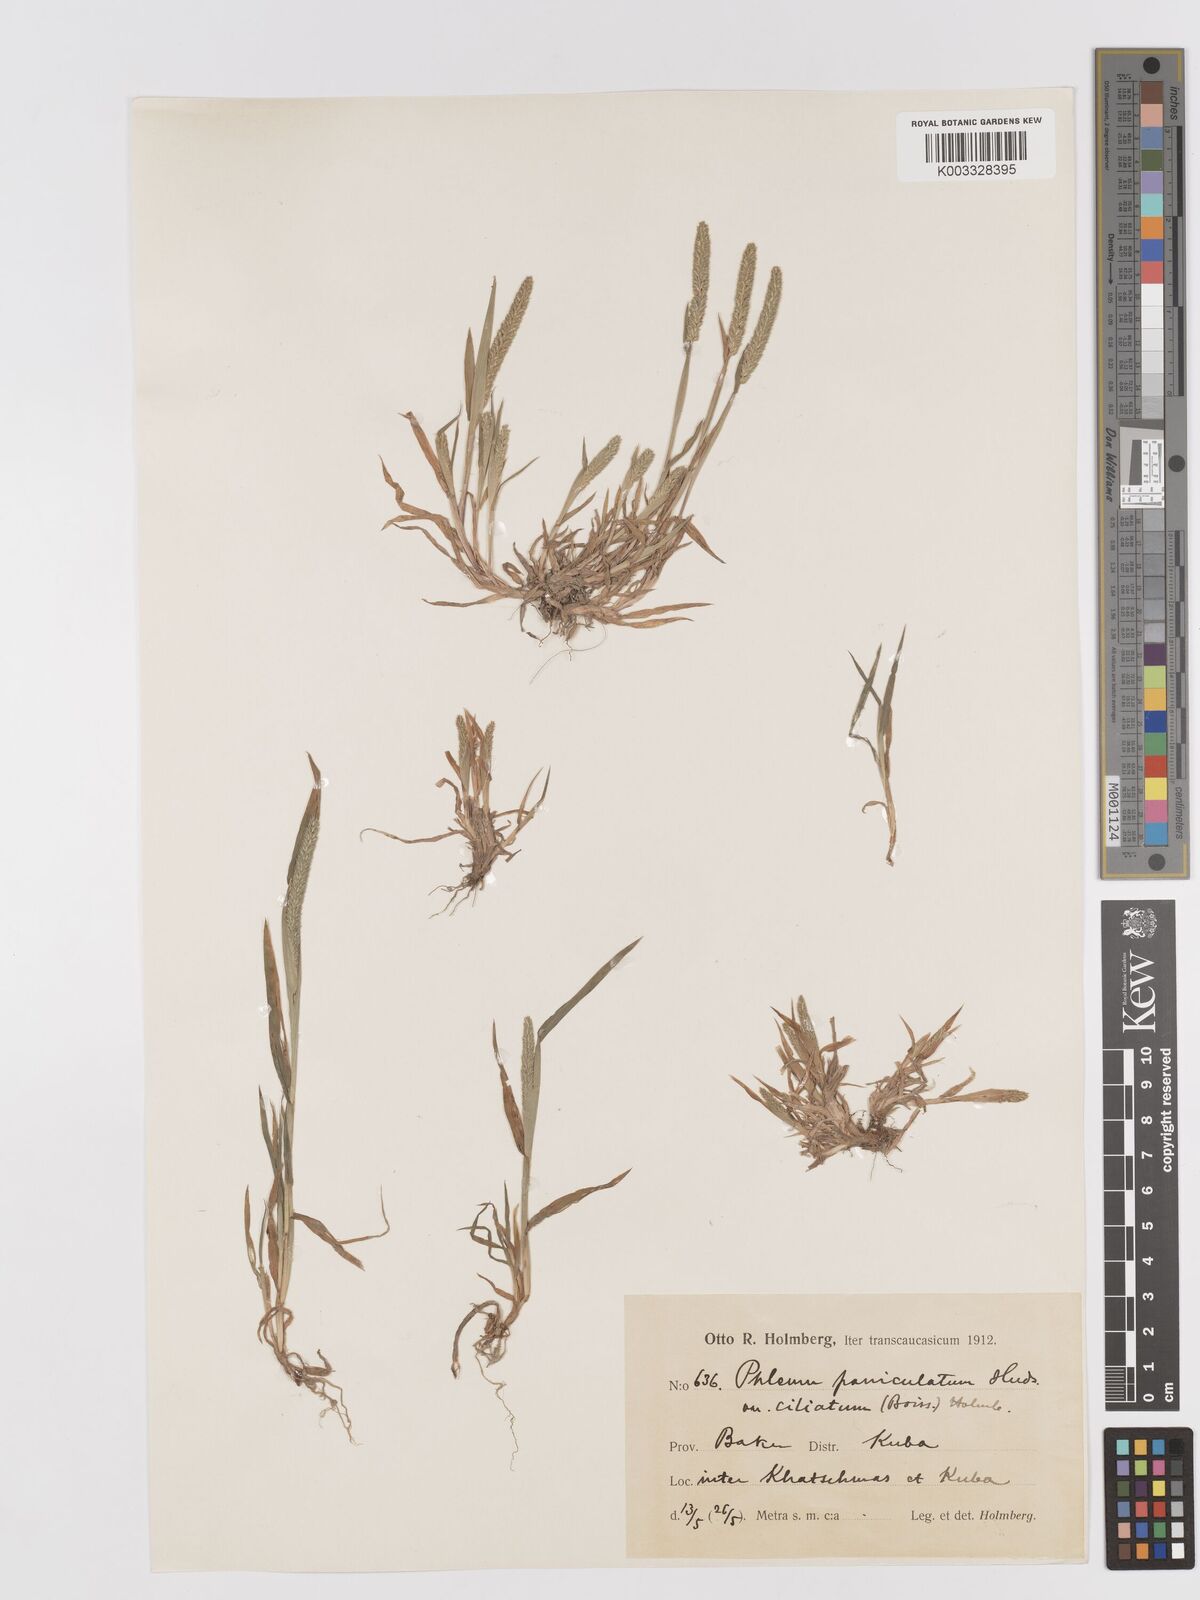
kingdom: Plantae
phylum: Tracheophyta
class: Liliopsida
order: Poales
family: Poaceae
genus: Phleum
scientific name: Phleum paniculatum
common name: British timothy
